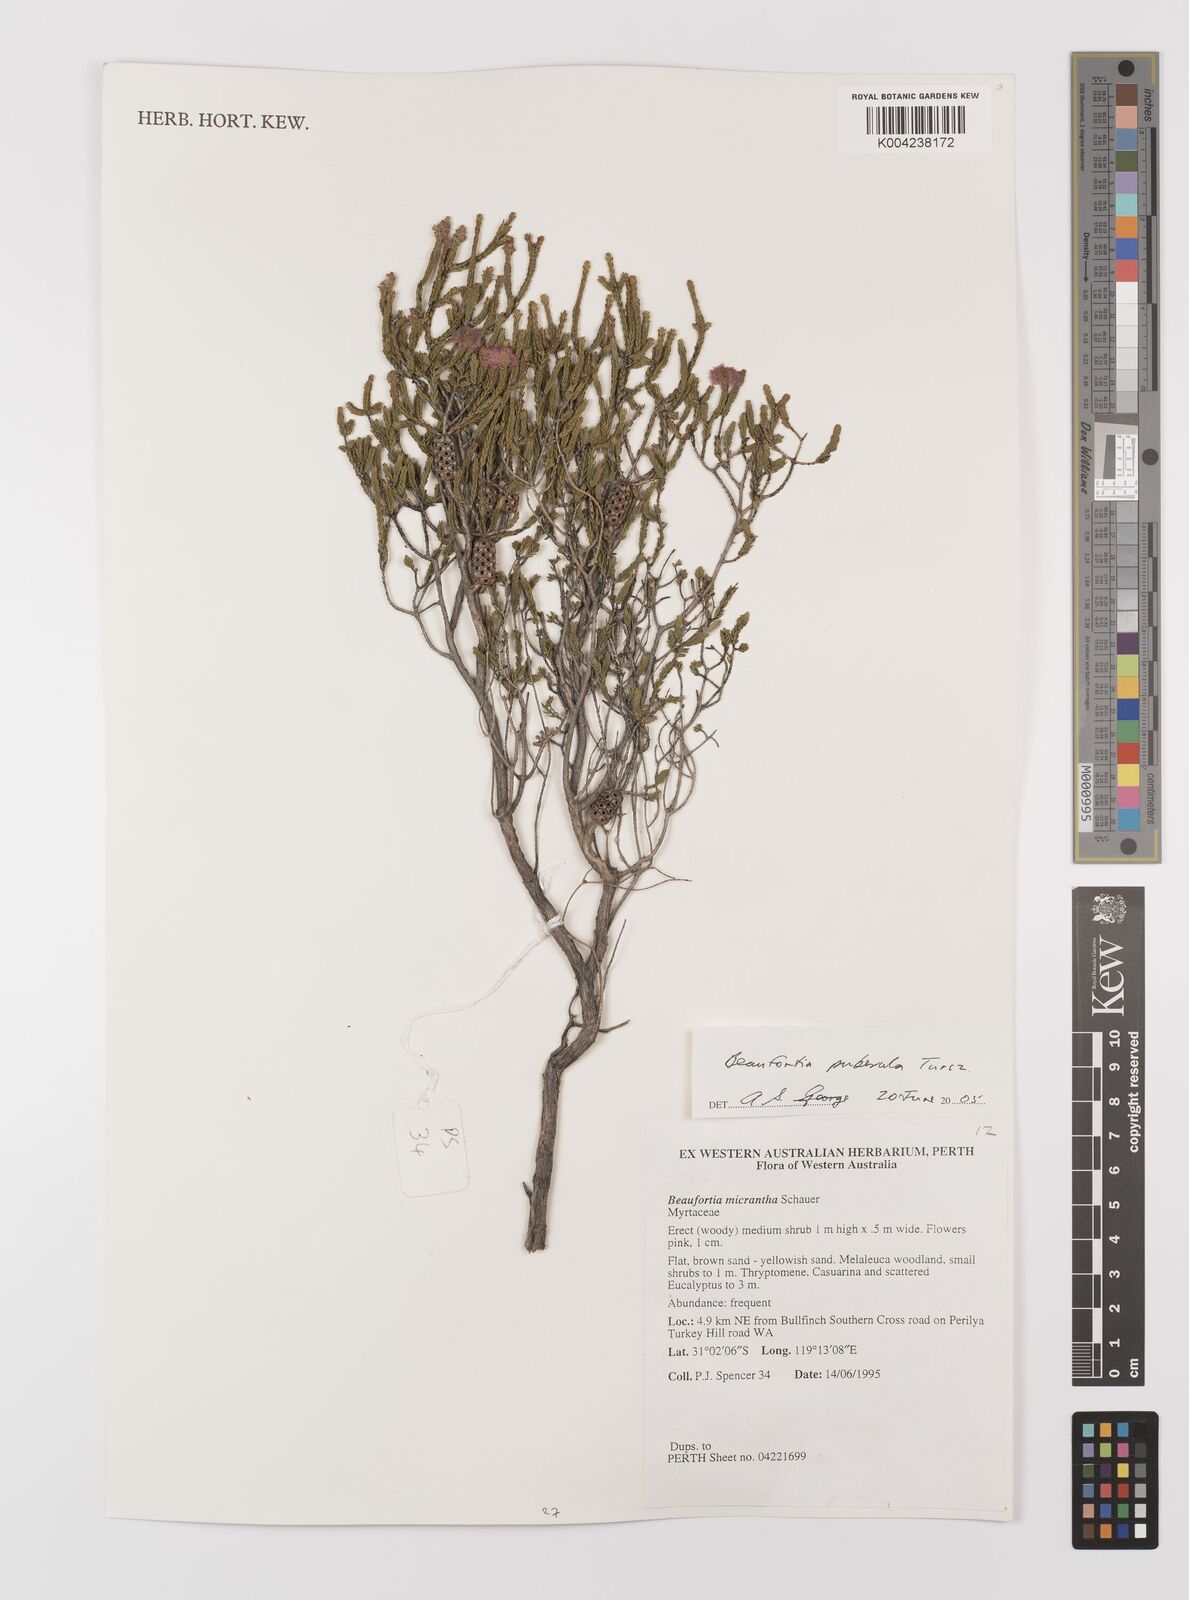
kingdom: Plantae
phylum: Tracheophyta
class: Magnoliopsida
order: Myrtales
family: Myrtaceae
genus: Melaleuca
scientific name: Melaleuca micrantha
